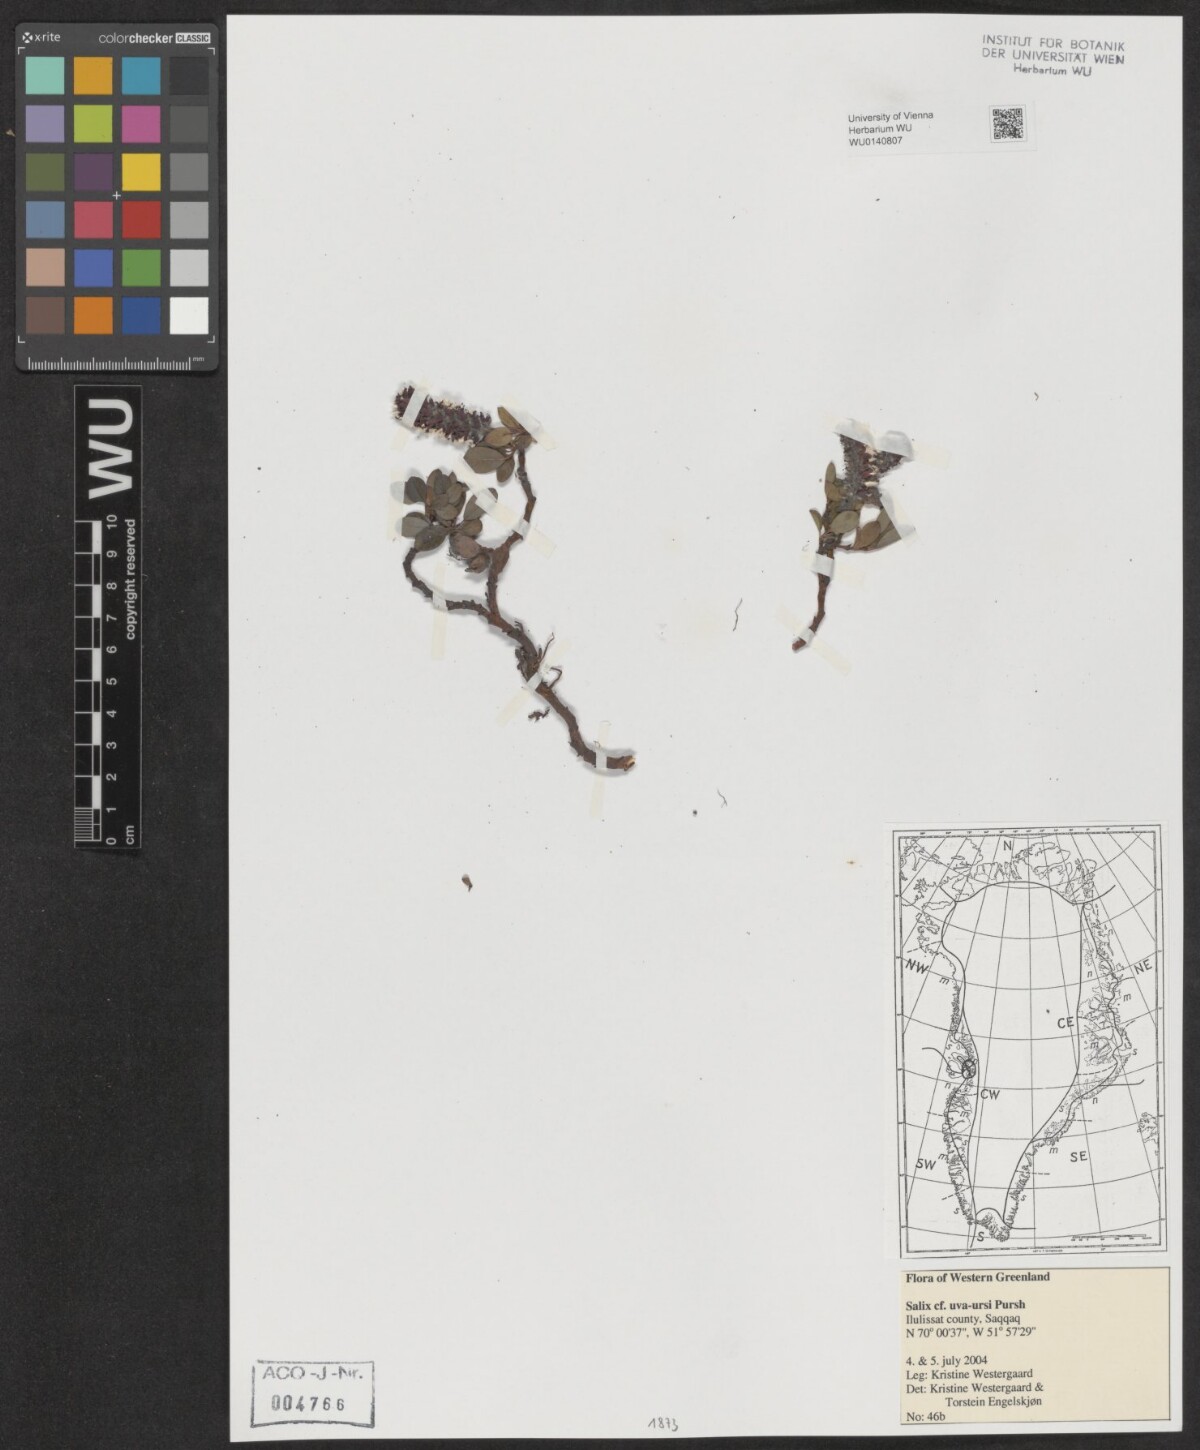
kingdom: Plantae
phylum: Tracheophyta
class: Magnoliopsida
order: Malpighiales
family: Salicaceae
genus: Salix
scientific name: Salix uva-ursi
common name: Bearberry willow
